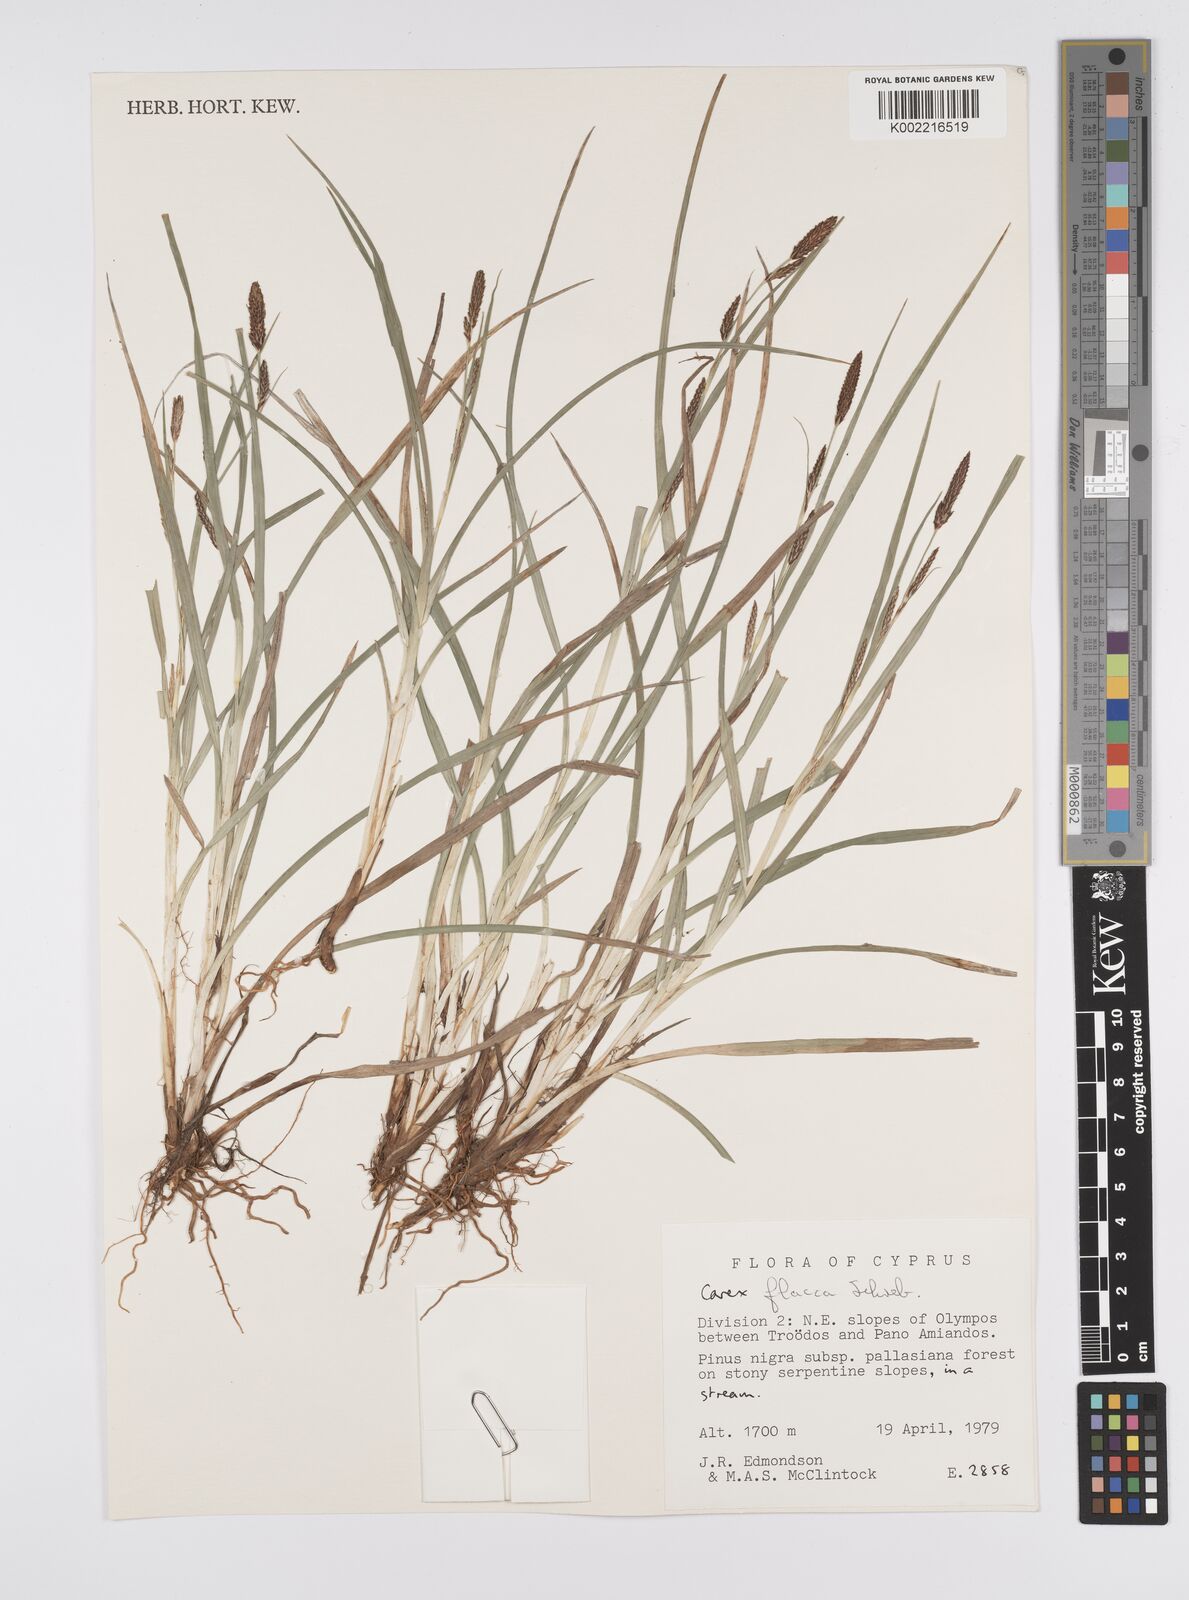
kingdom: Plantae
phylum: Tracheophyta
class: Liliopsida
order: Poales
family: Cyperaceae
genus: Carex
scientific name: Carex flacca
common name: Glaucous sedge
